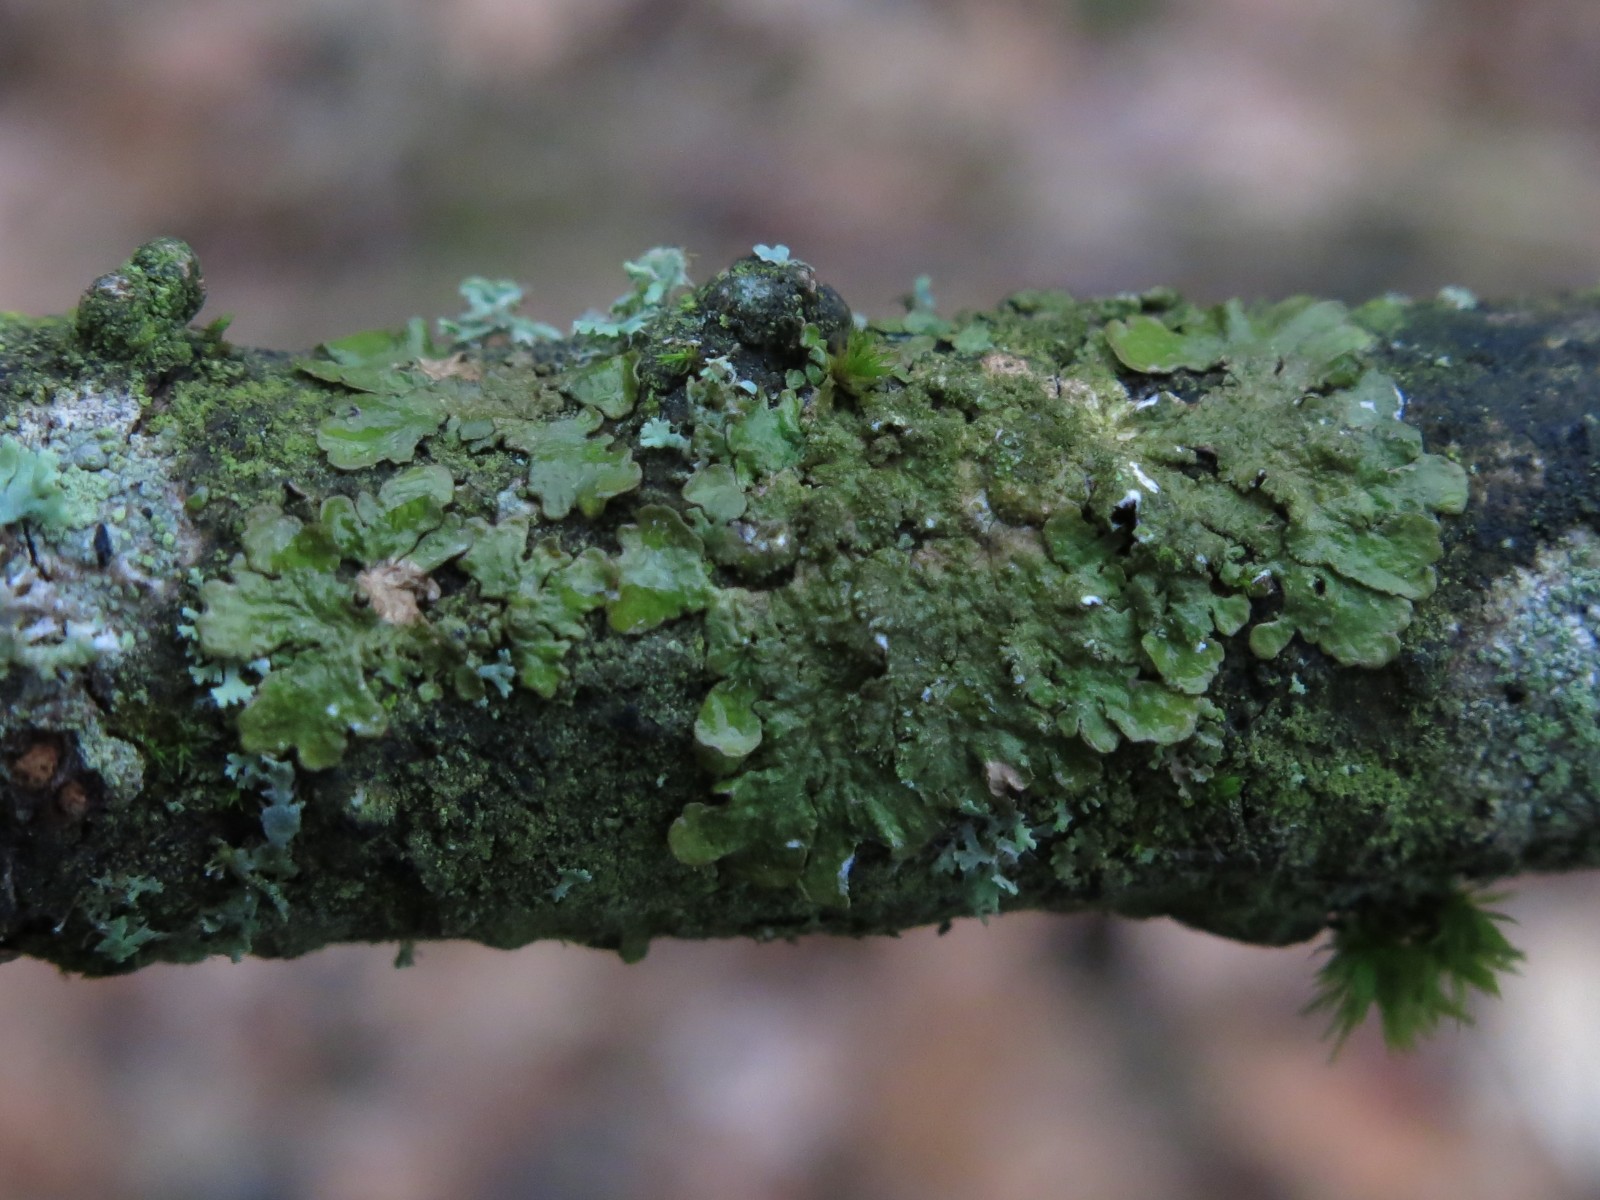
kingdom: Fungi
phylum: Ascomycota
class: Lecanoromycetes
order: Lecanorales
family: Parmeliaceae
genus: Melanelixia
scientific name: Melanelixia subaurifera
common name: guldpudret skållav
